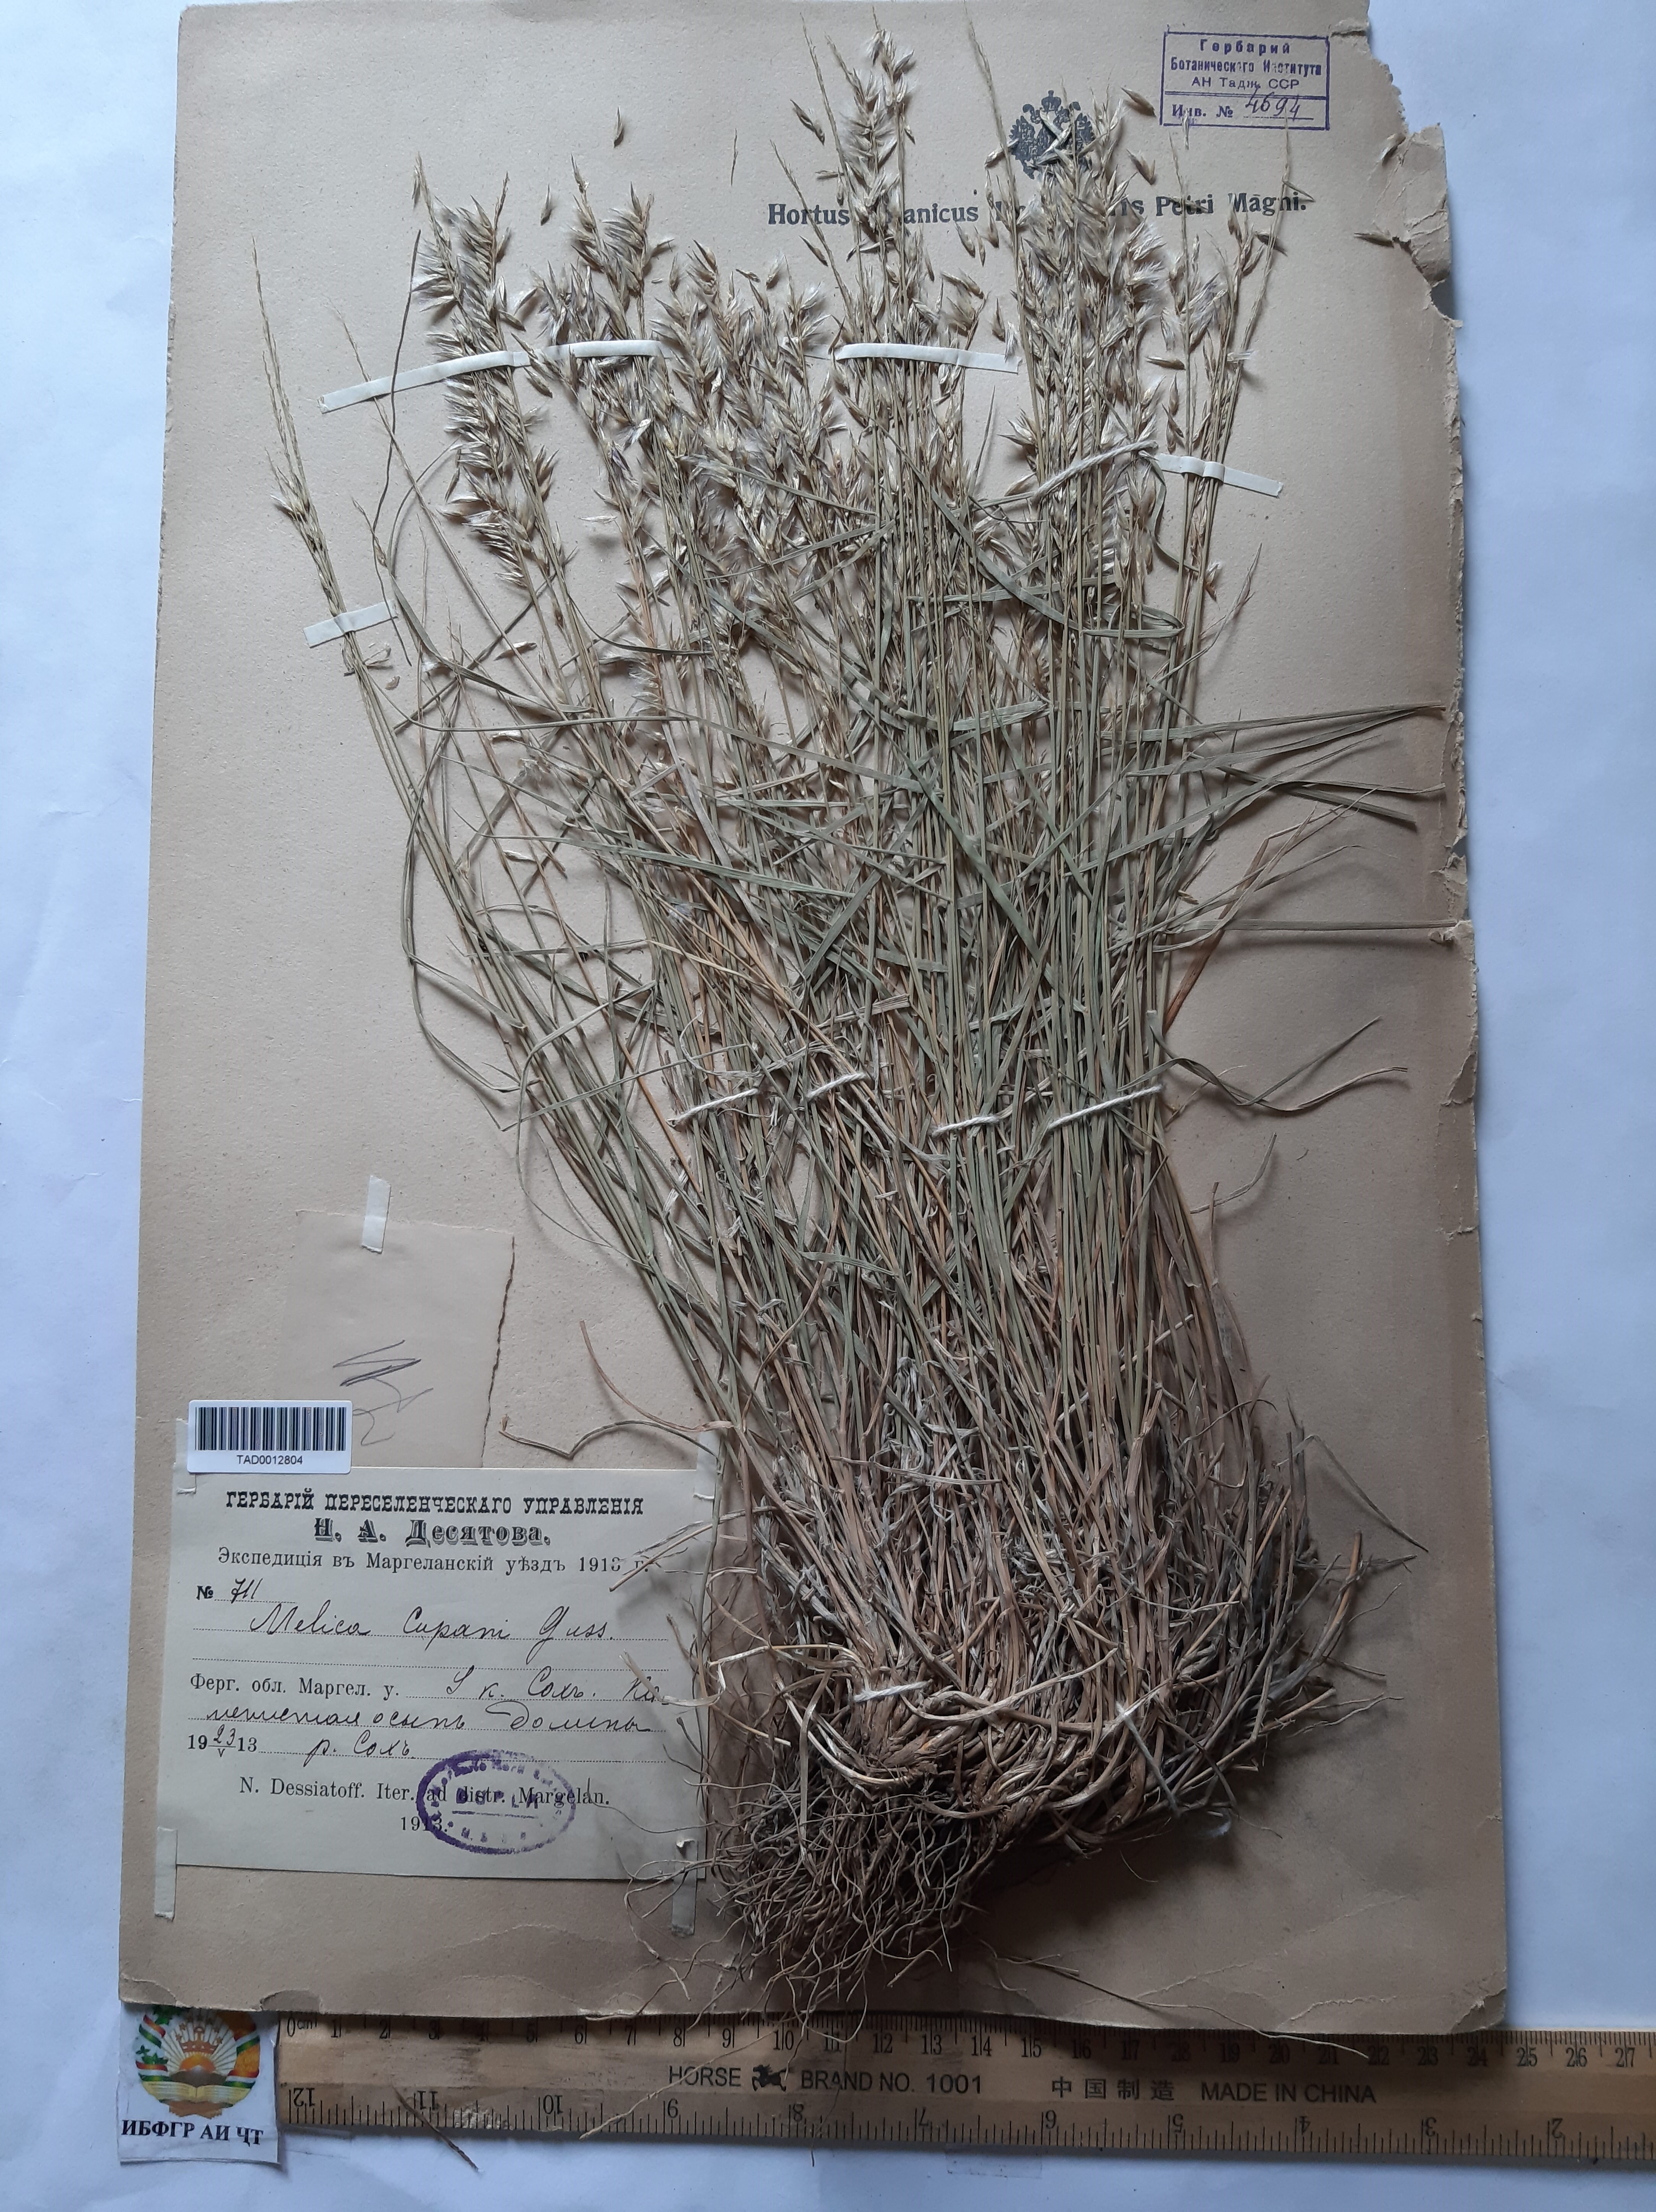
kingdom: Plantae
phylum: Tracheophyta
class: Liliopsida
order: Poales
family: Poaceae
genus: Melica
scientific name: Melica persica
